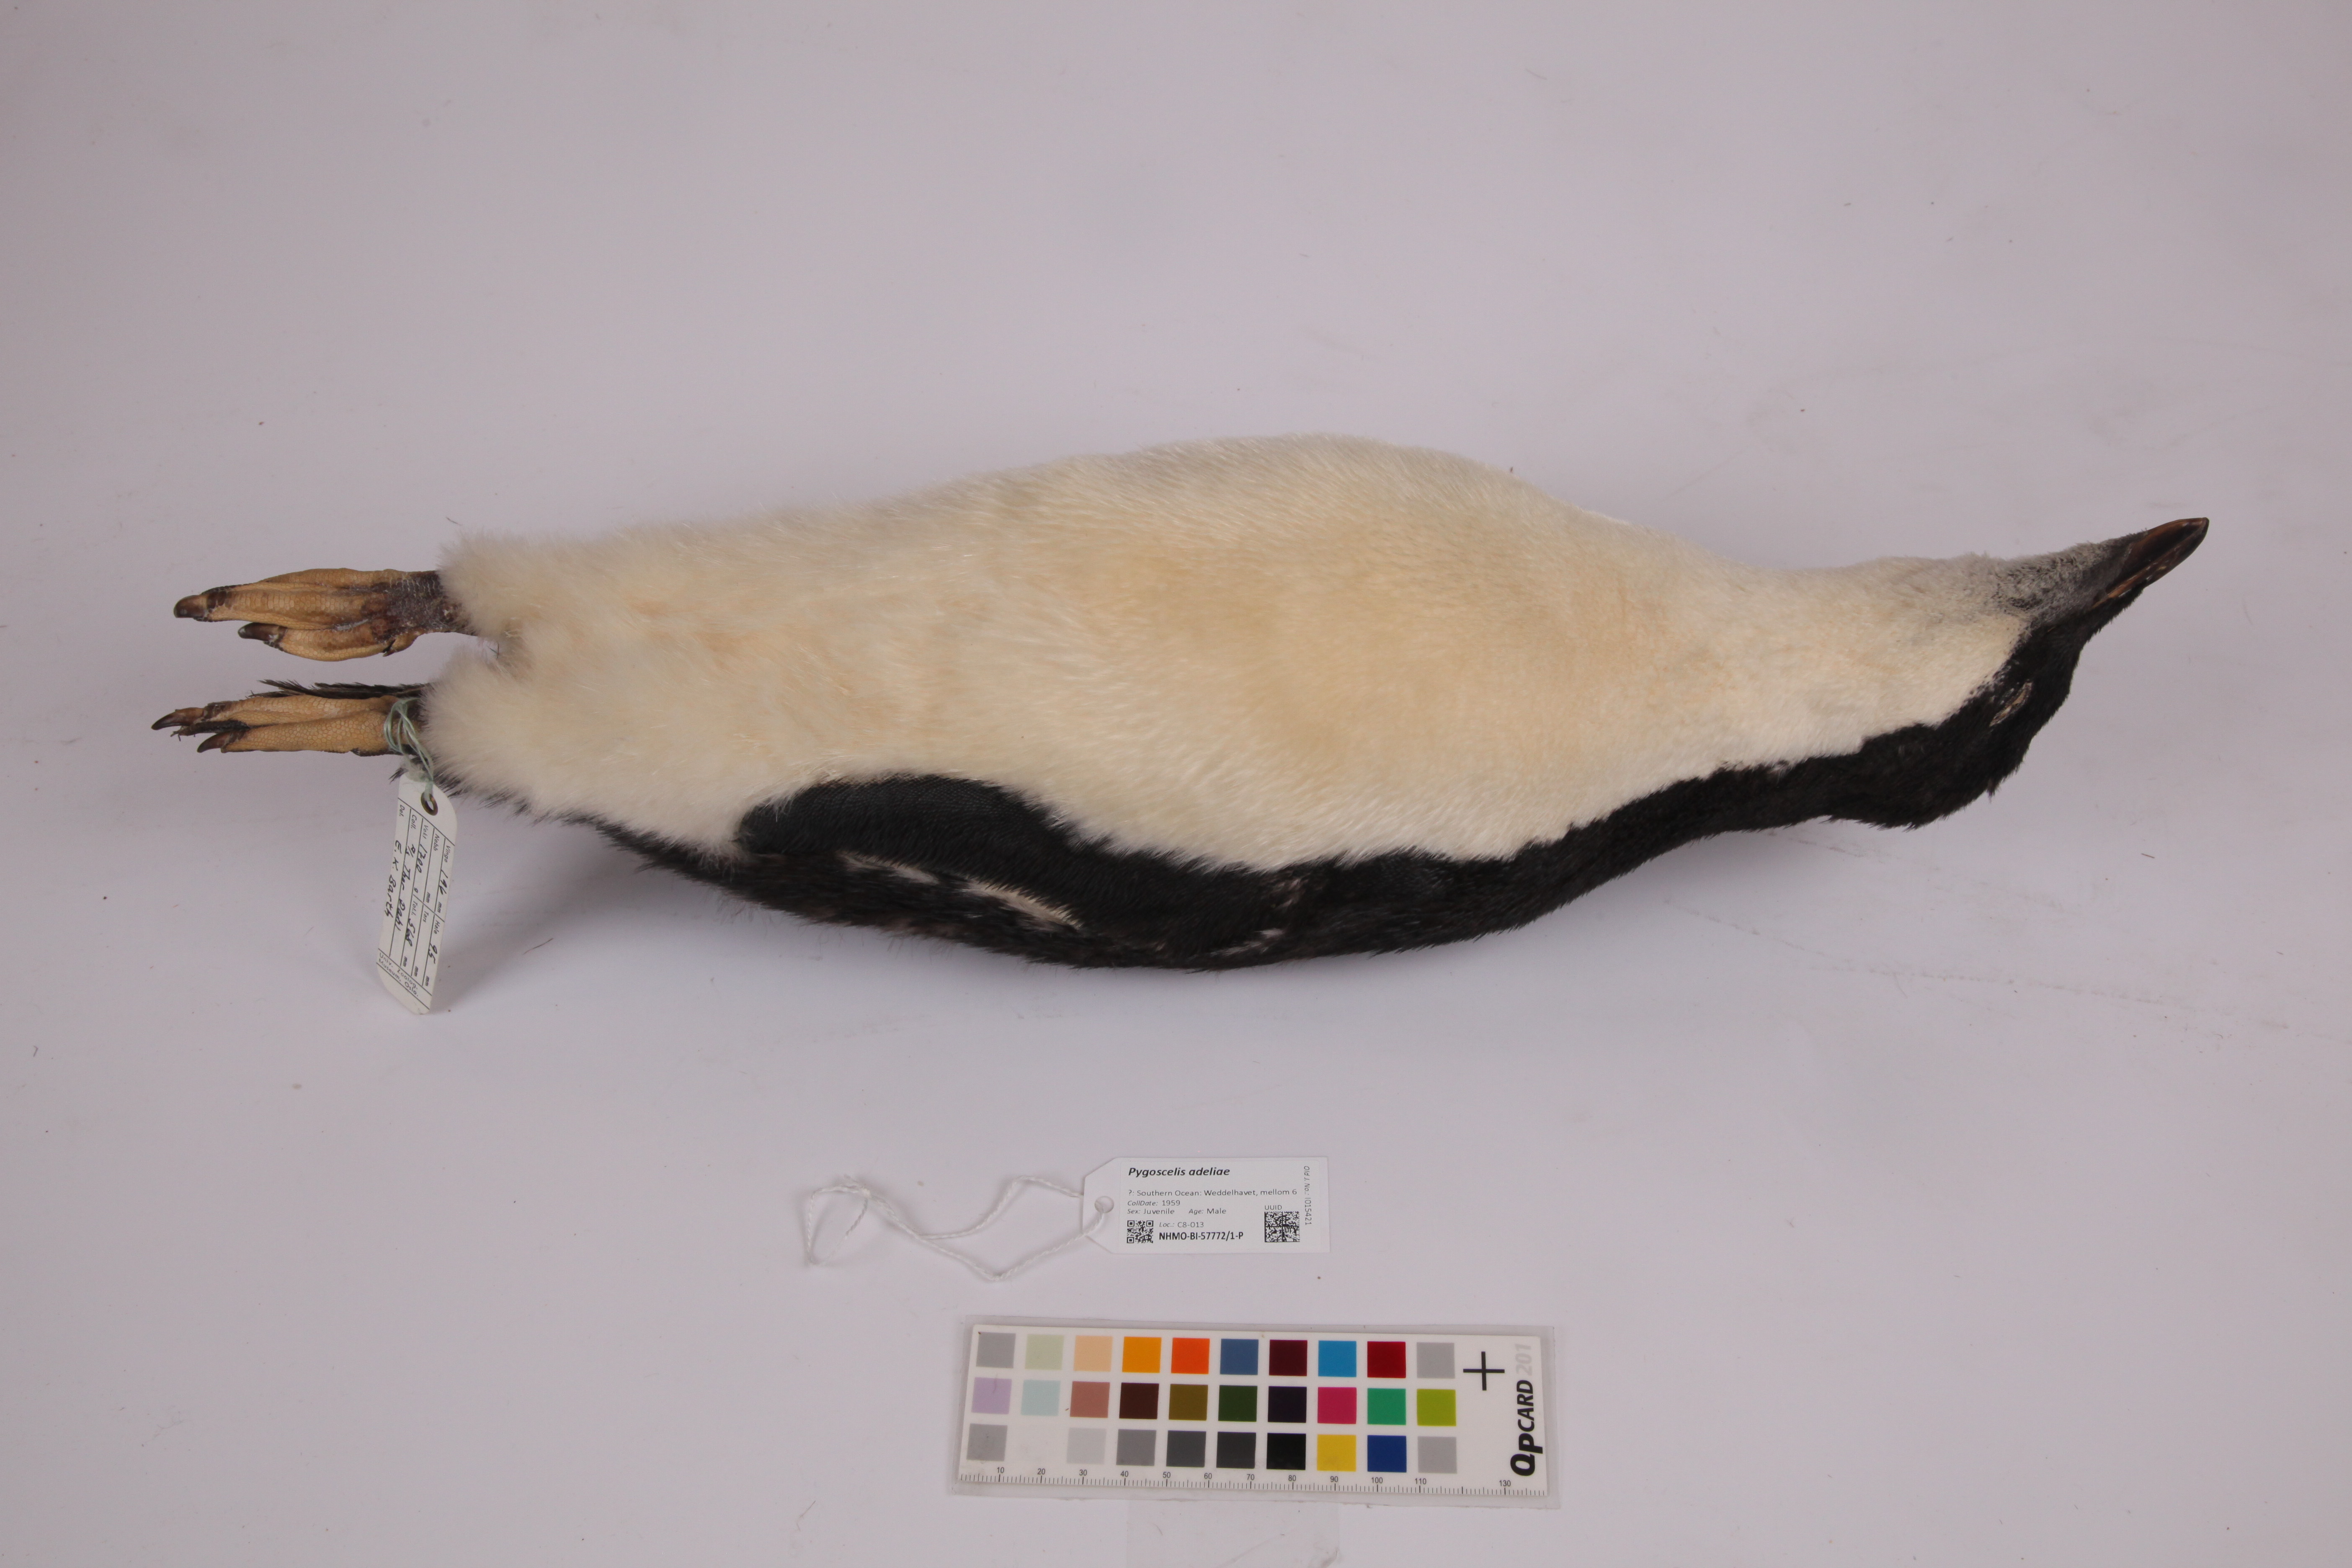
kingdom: Animalia
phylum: Chordata
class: Aves
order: Sphenisciformes
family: Spheniscidae
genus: Pygoscelis
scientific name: Pygoscelis adeliae
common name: Adelie penguin
